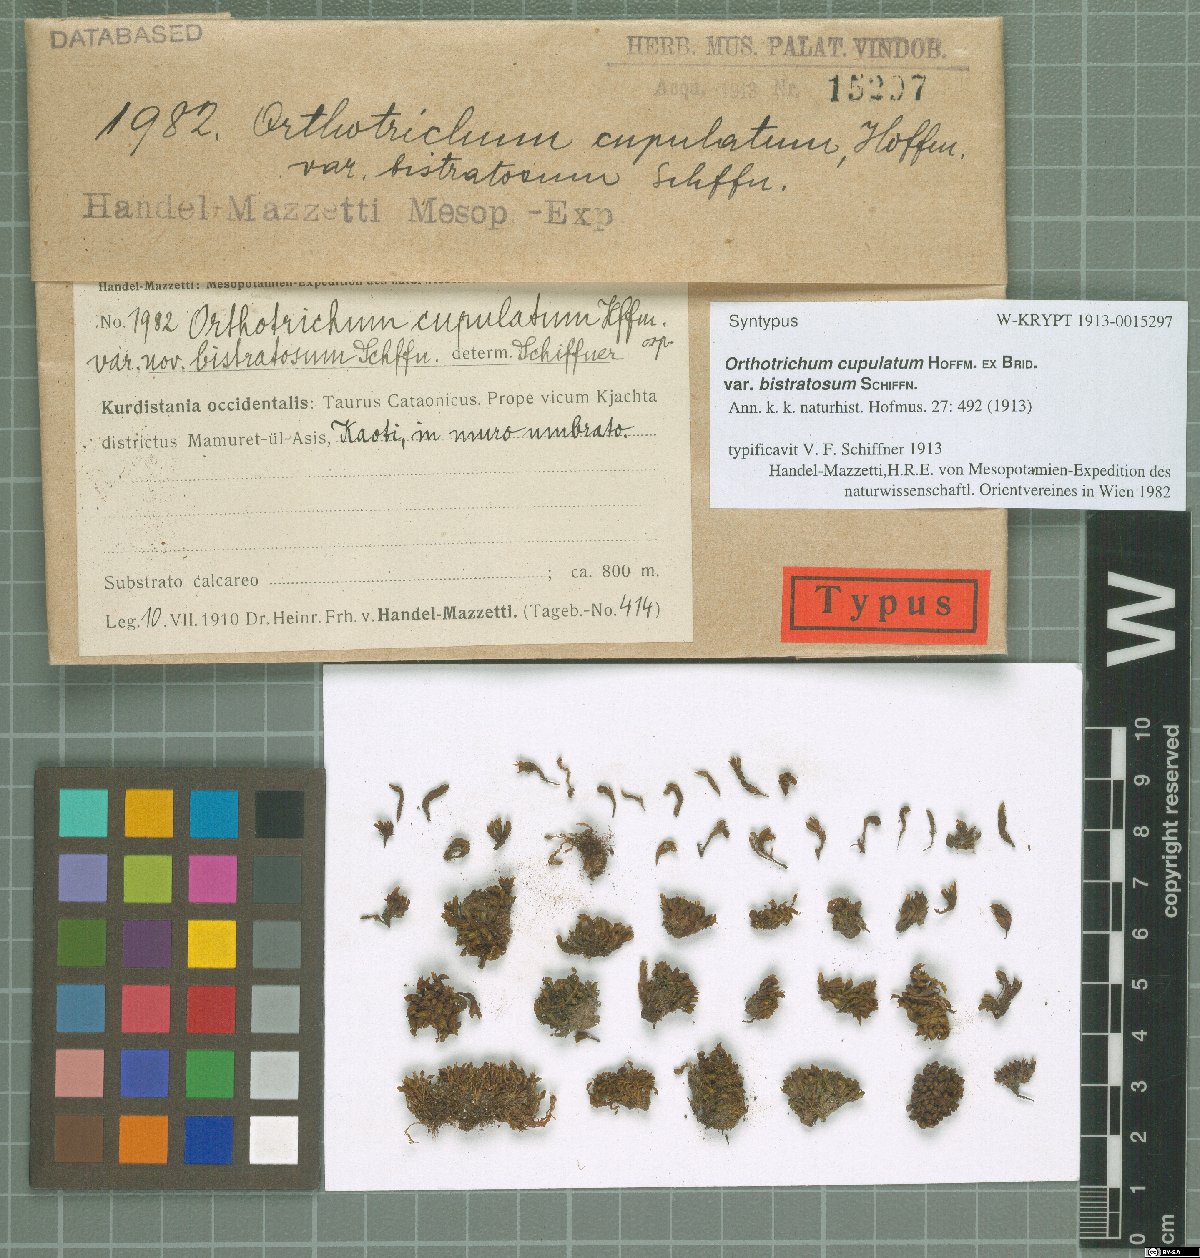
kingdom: Plantae
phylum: Bryophyta
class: Bryopsida
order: Orthotrichales
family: Orthotrichaceae
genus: Orthotrichum
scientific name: Orthotrichum bistratosum
